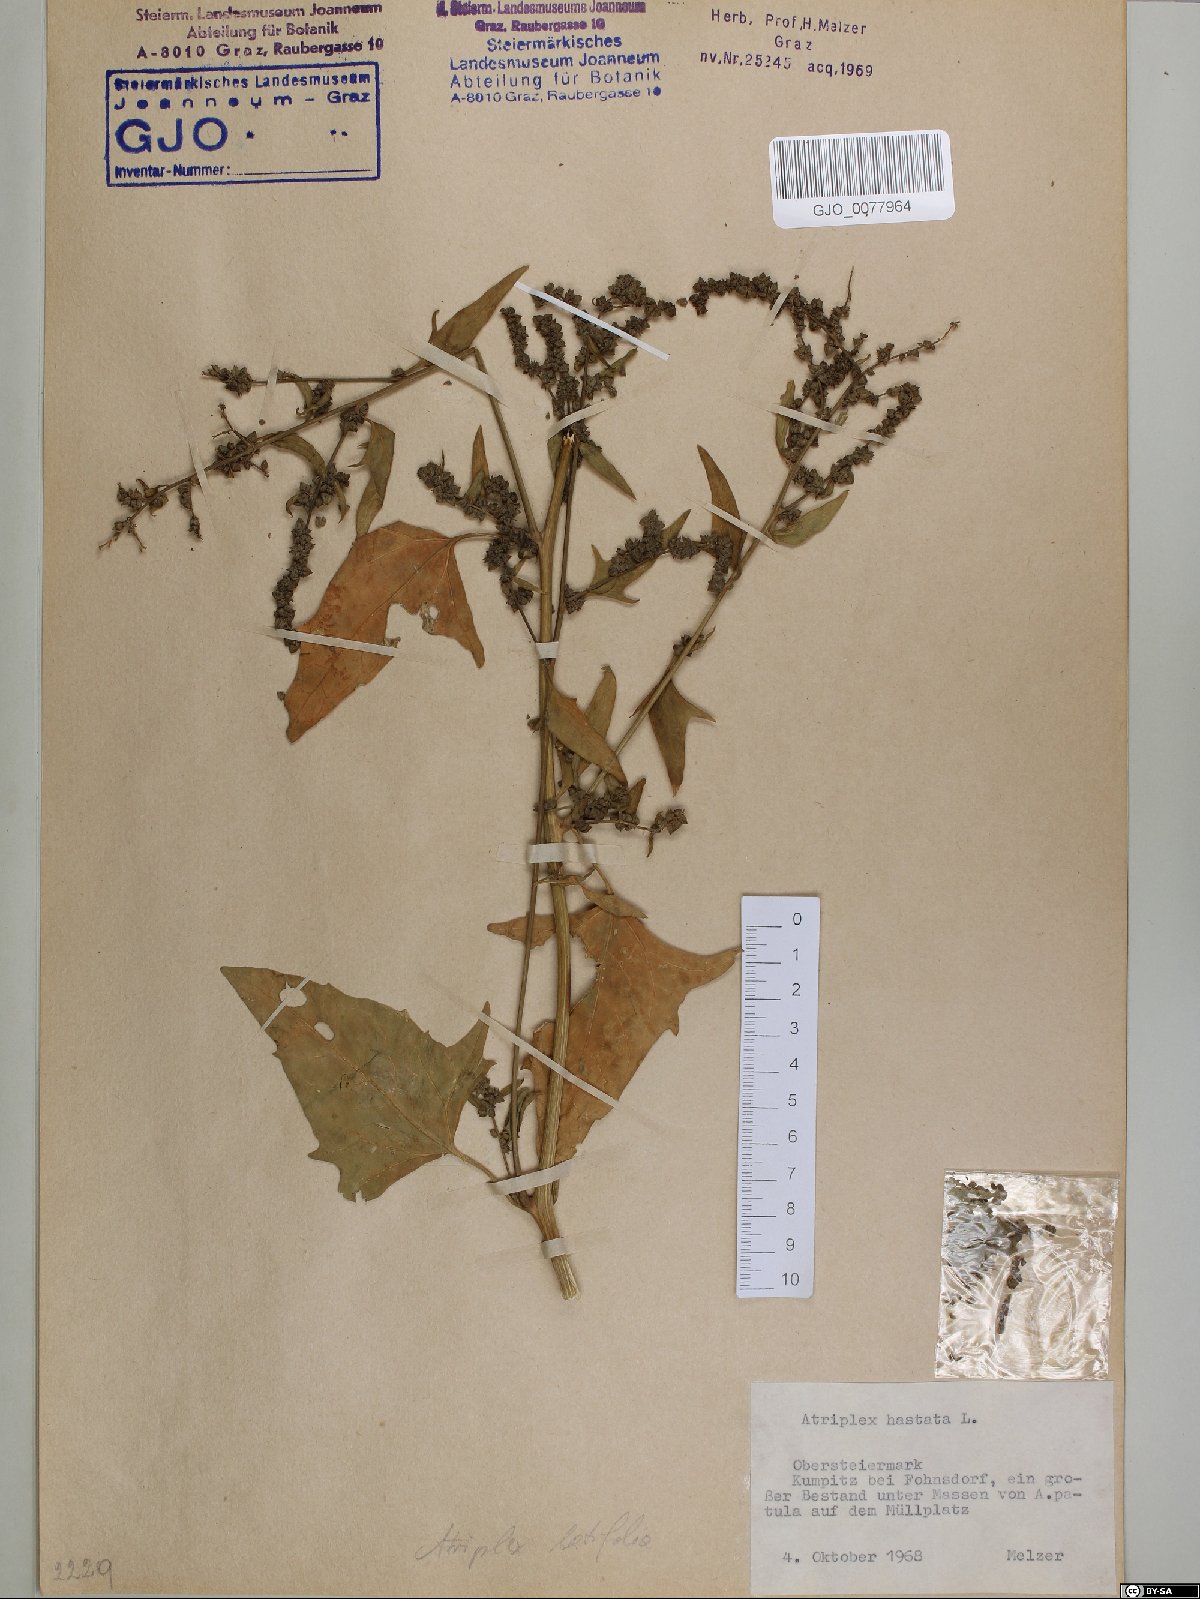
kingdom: Plantae
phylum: Tracheophyta
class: Magnoliopsida
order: Caryophyllales
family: Amaranthaceae
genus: Atriplex
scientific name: Atriplex calotheca
